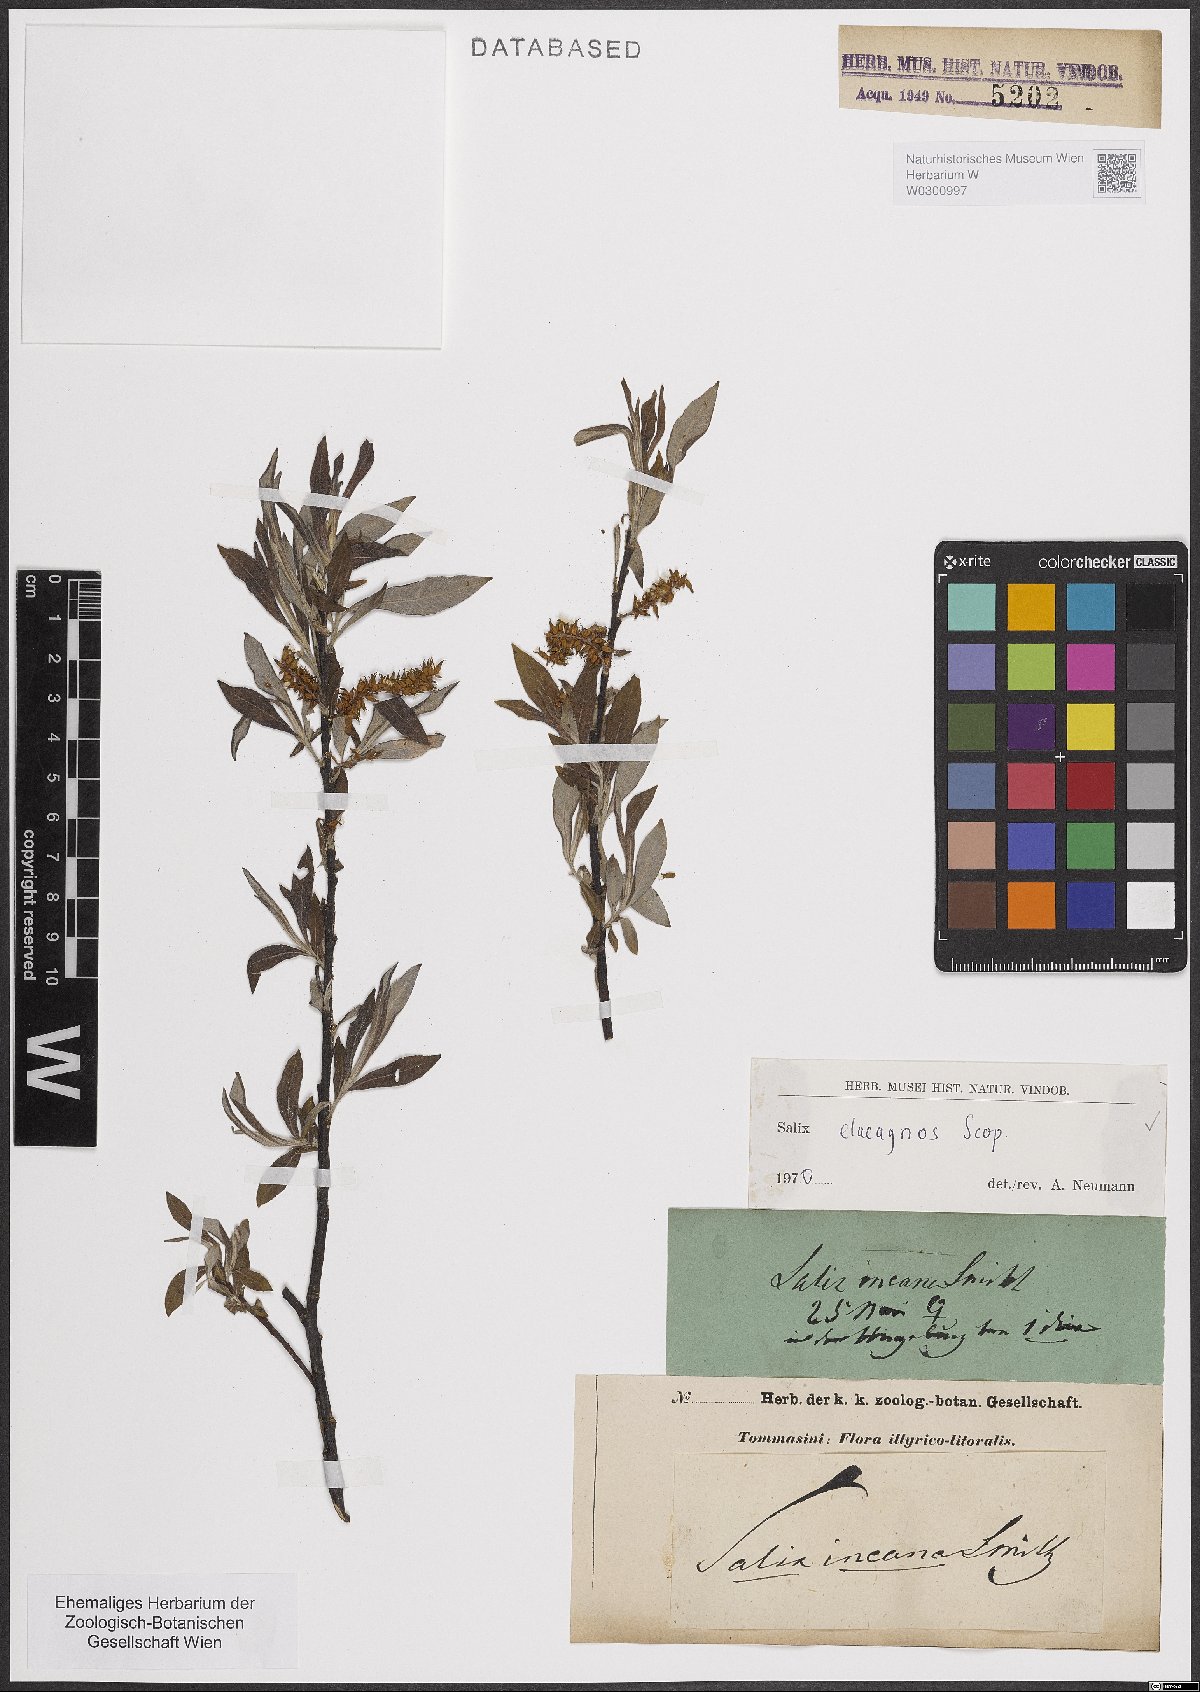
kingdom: Plantae
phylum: Tracheophyta
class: Magnoliopsida
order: Malpighiales
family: Salicaceae
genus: Salix
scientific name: Salix eleagnos
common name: Elaeagnus willow
